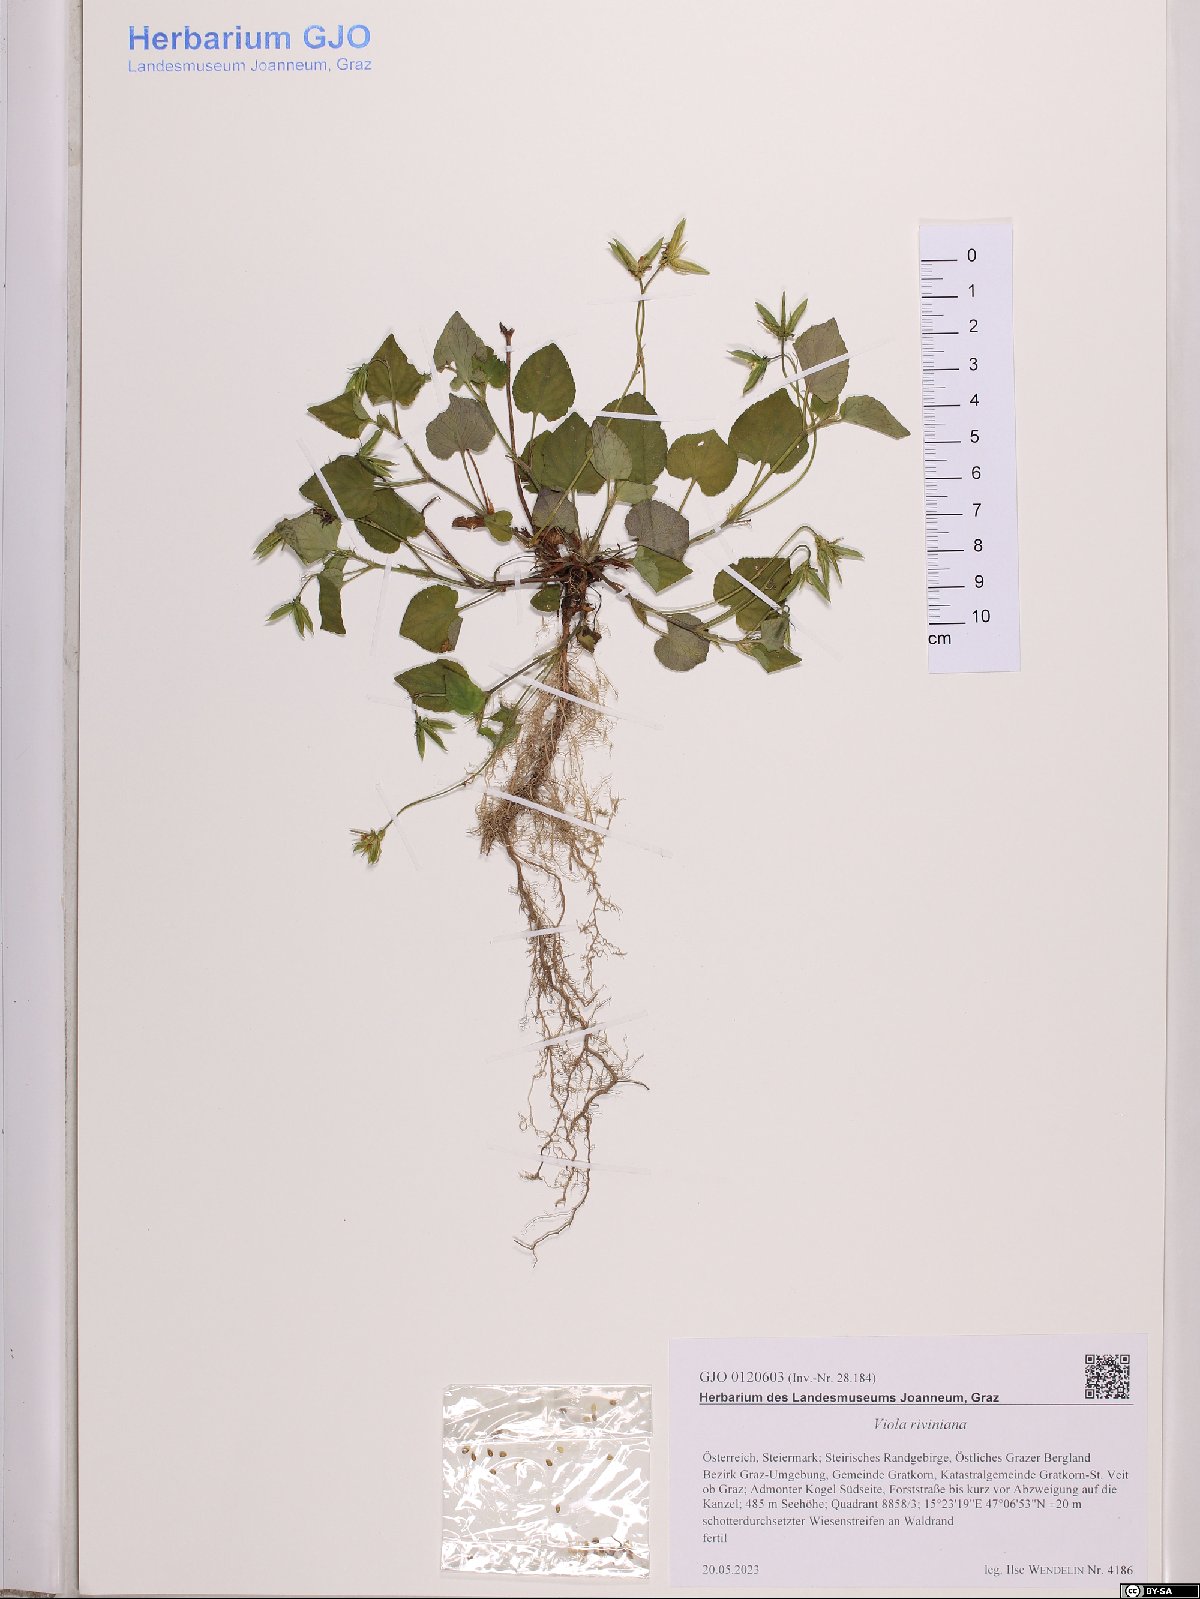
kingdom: Plantae
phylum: Tracheophyta
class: Magnoliopsida
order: Malpighiales
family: Violaceae
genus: Viola
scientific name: Viola riviniana
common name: Common dog-violet
